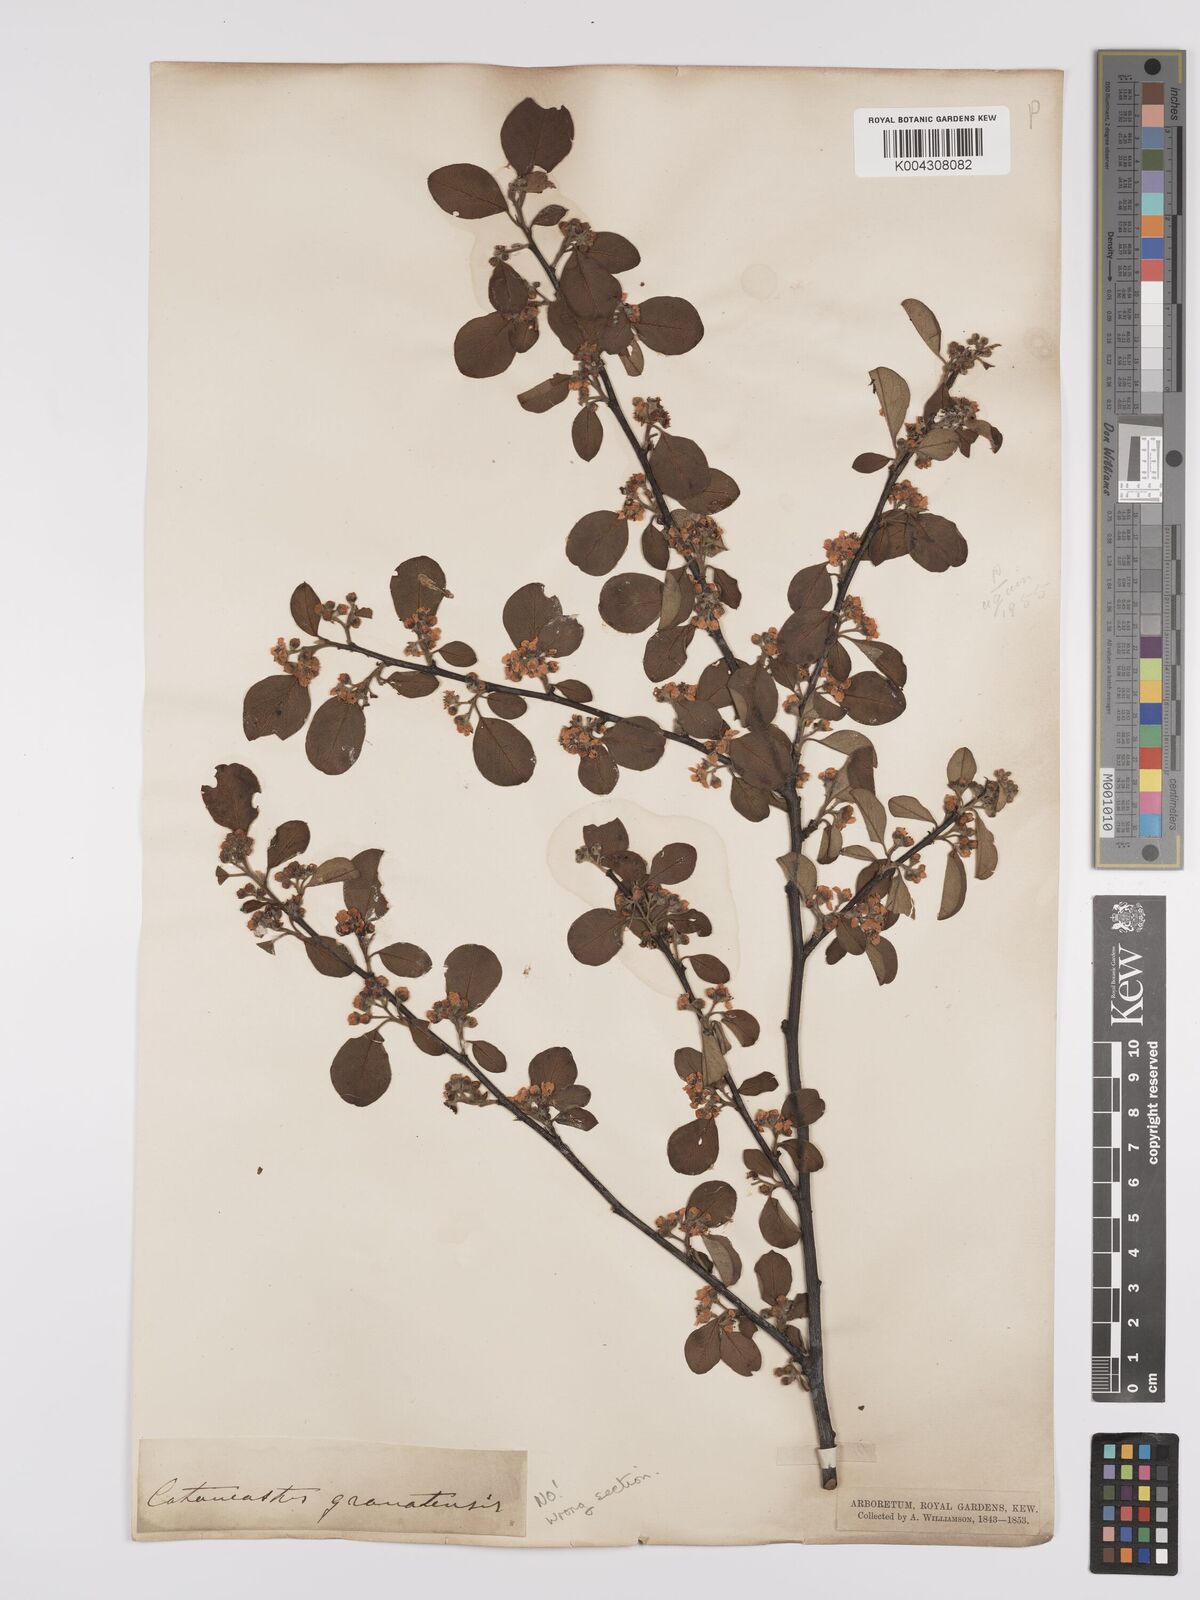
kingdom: Plantae
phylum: Tracheophyta
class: Magnoliopsida
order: Rosales
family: Rosaceae
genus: Cotoneaster
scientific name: Cotoneaster lindleyi
